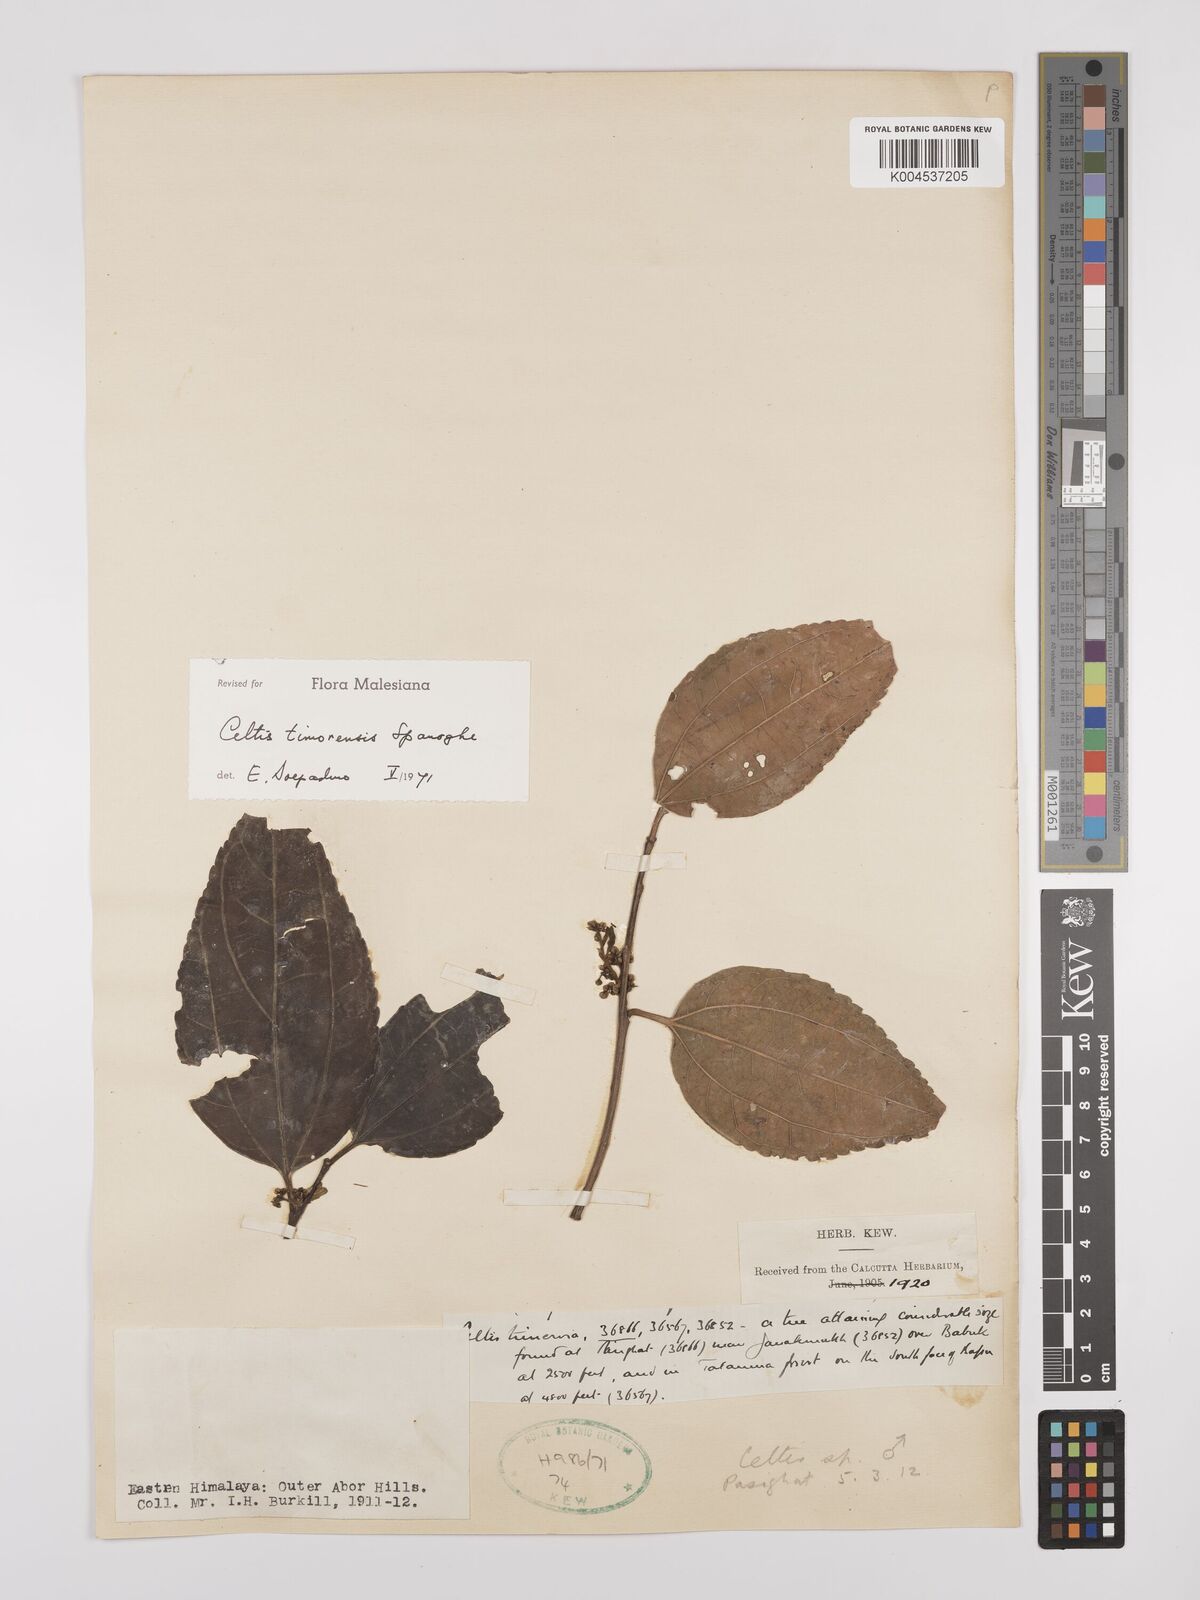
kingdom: Plantae
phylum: Tracheophyta
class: Magnoliopsida
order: Rosales
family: Cannabaceae
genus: Celtis
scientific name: Celtis timorensis
